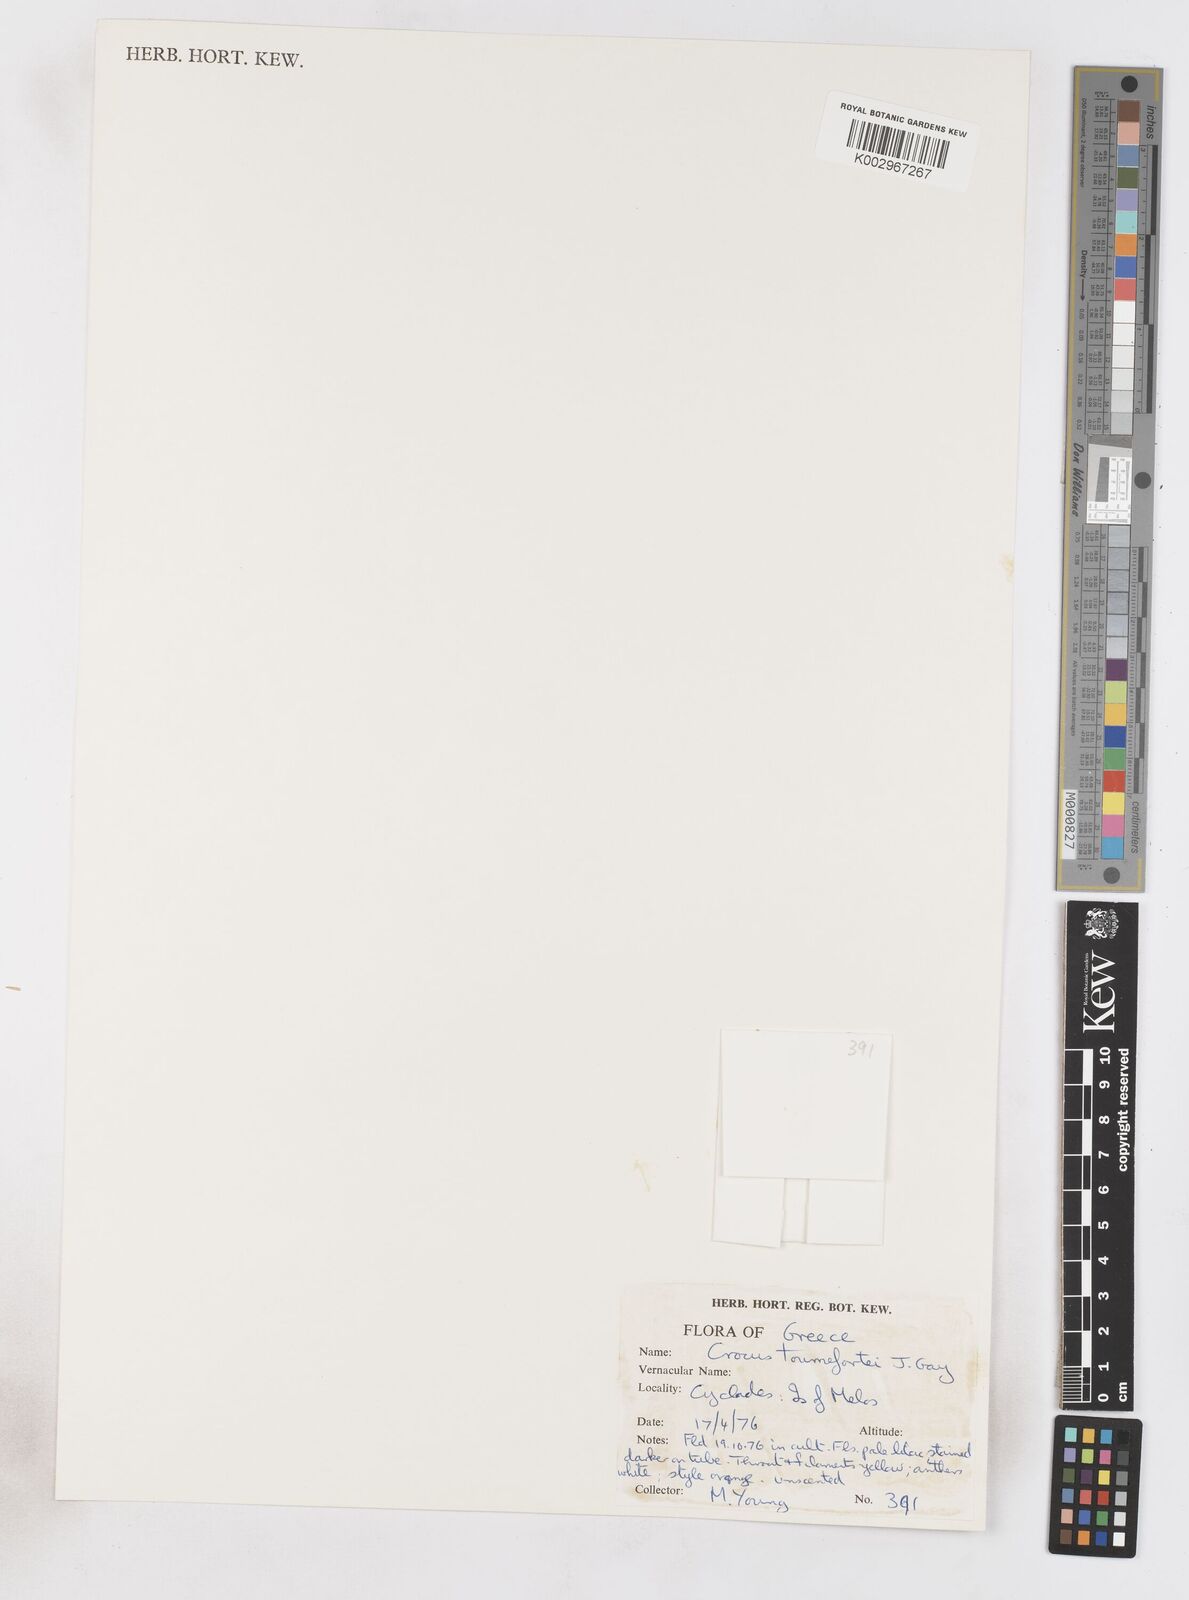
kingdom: Plantae
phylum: Tracheophyta
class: Liliopsida
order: Asparagales
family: Iridaceae
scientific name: Iridaceae
